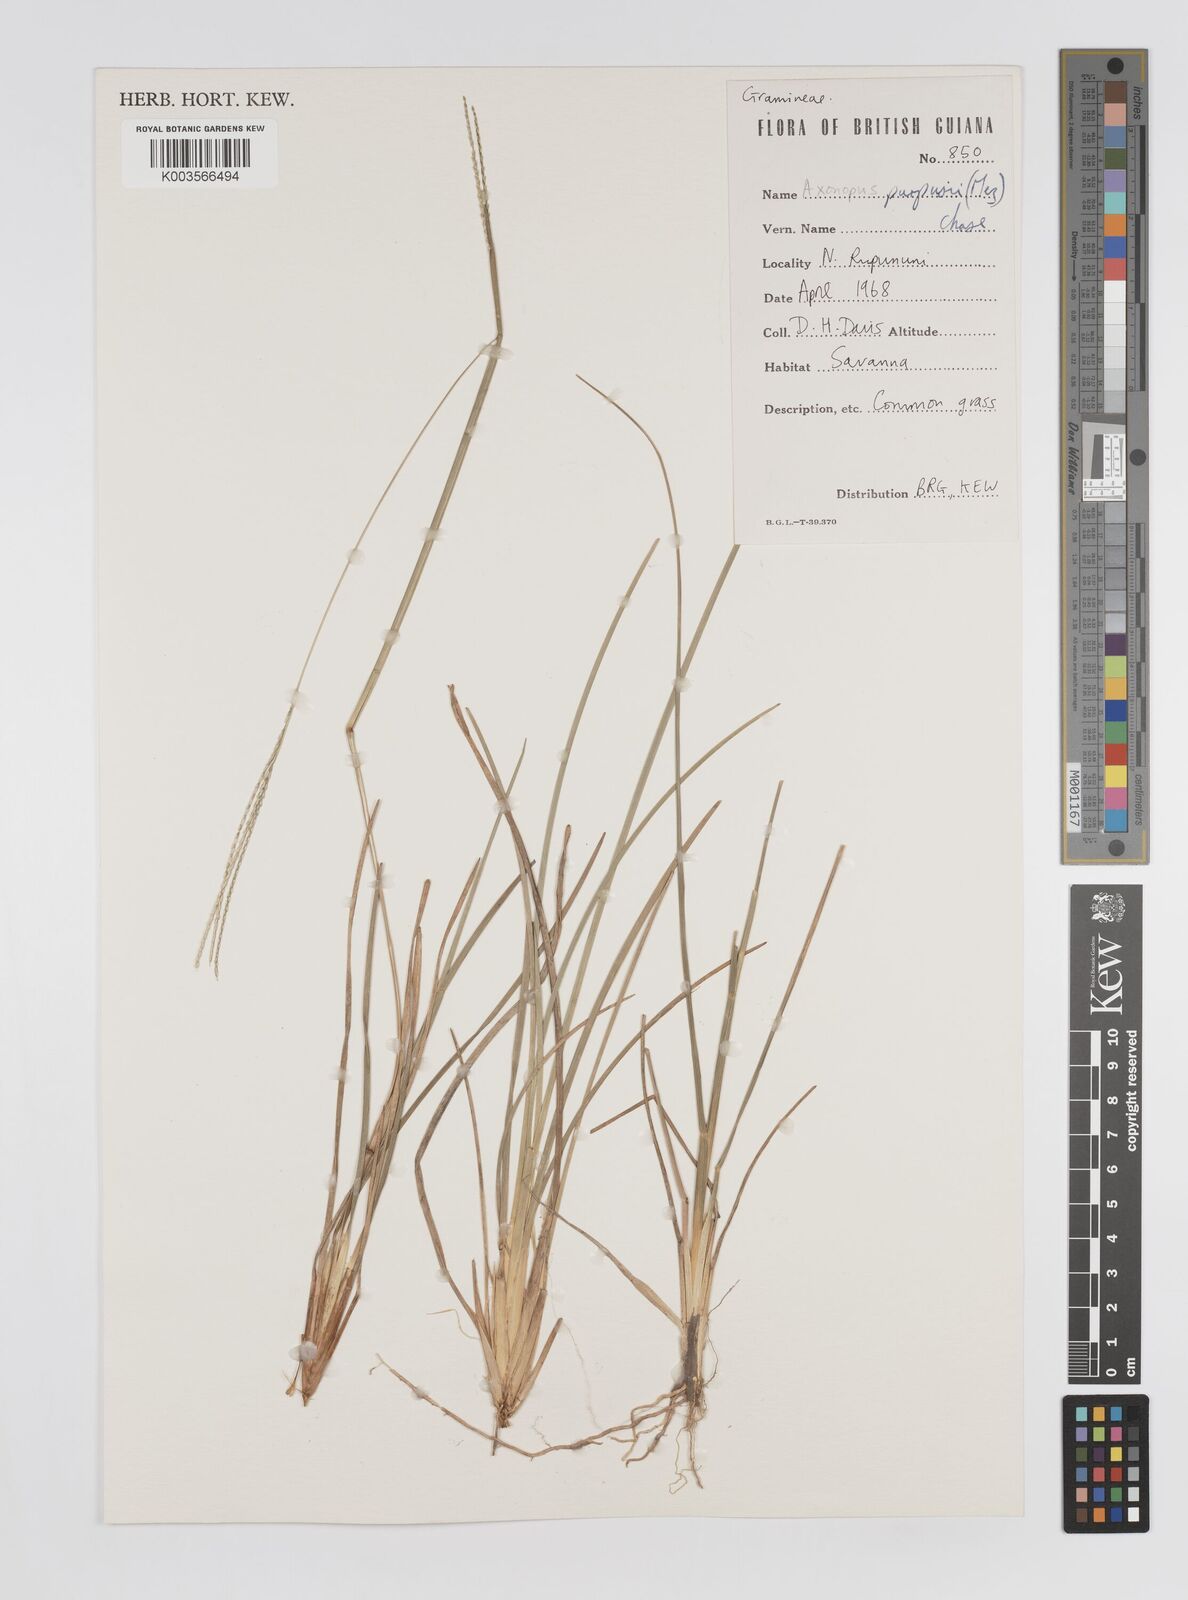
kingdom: Plantae
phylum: Tracheophyta
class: Liliopsida
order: Poales
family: Poaceae
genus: Axonopus
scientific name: Axonopus purpusii
